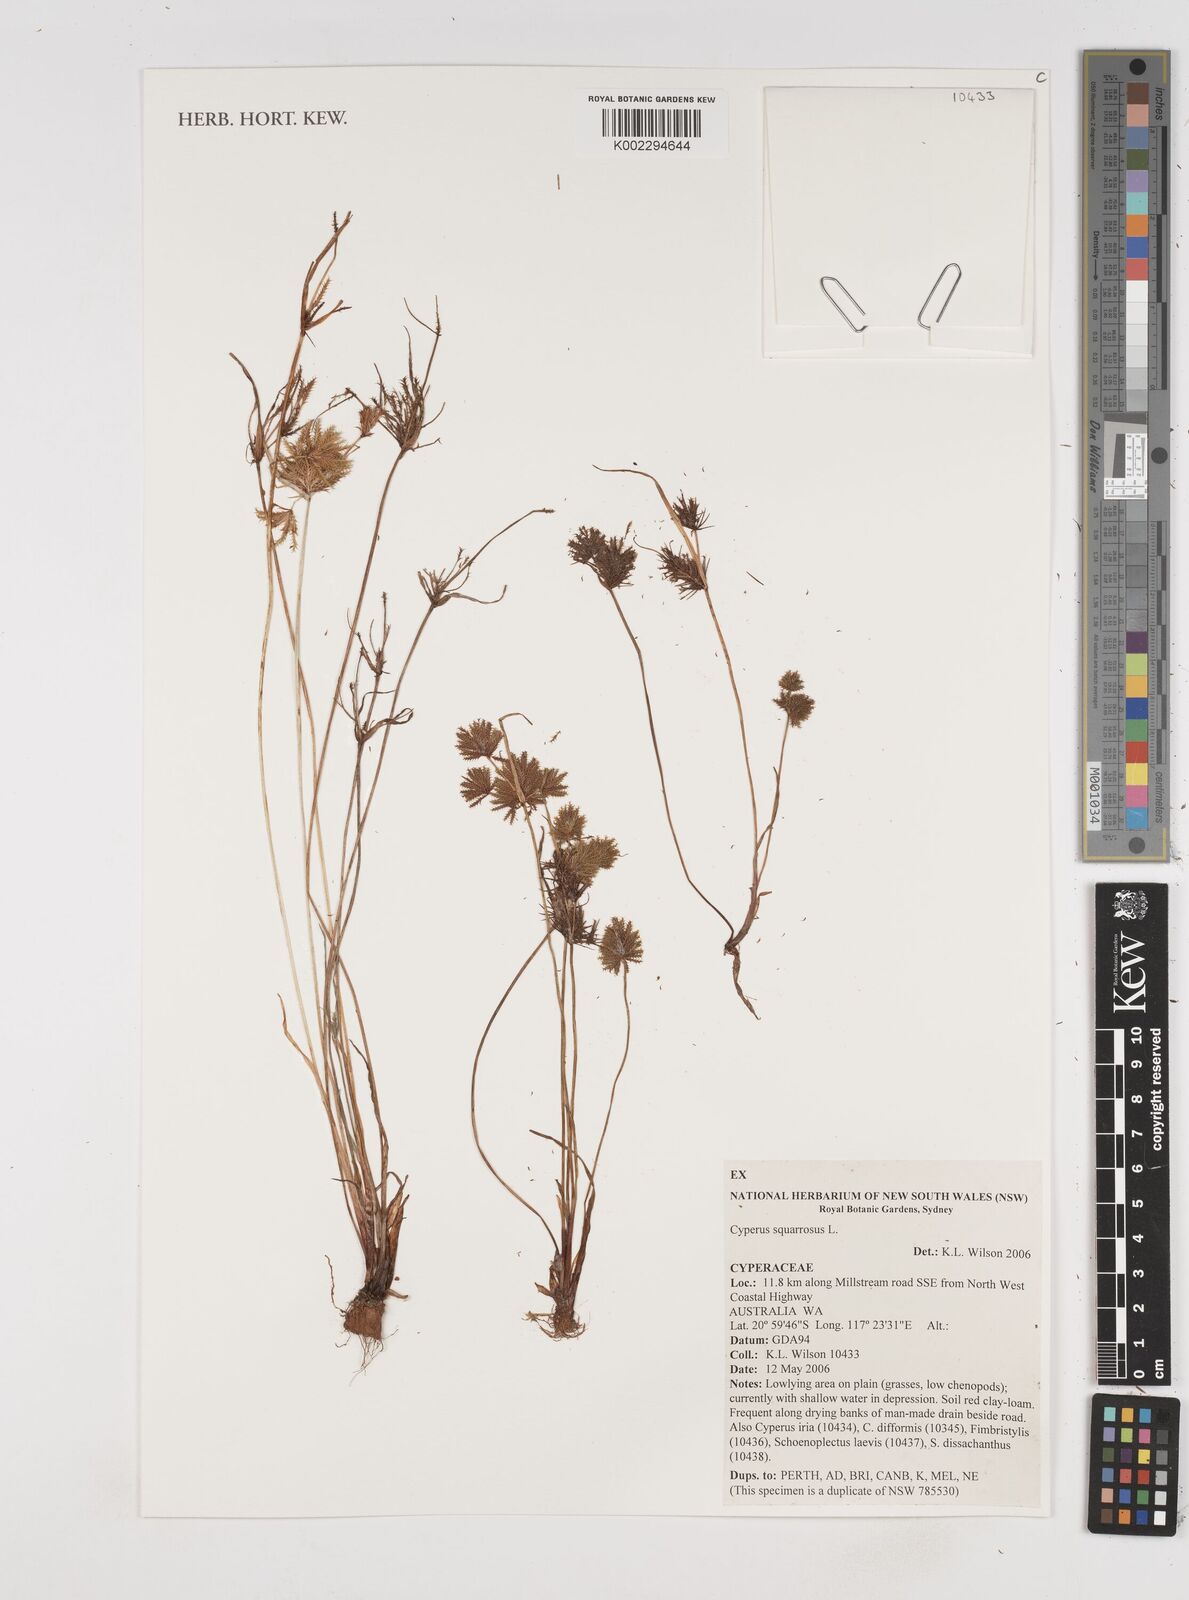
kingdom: Plantae
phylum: Tracheophyta
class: Liliopsida
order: Poales
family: Cyperaceae
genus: Cyperus
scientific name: Cyperus squarrosus
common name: Awned cyperus
